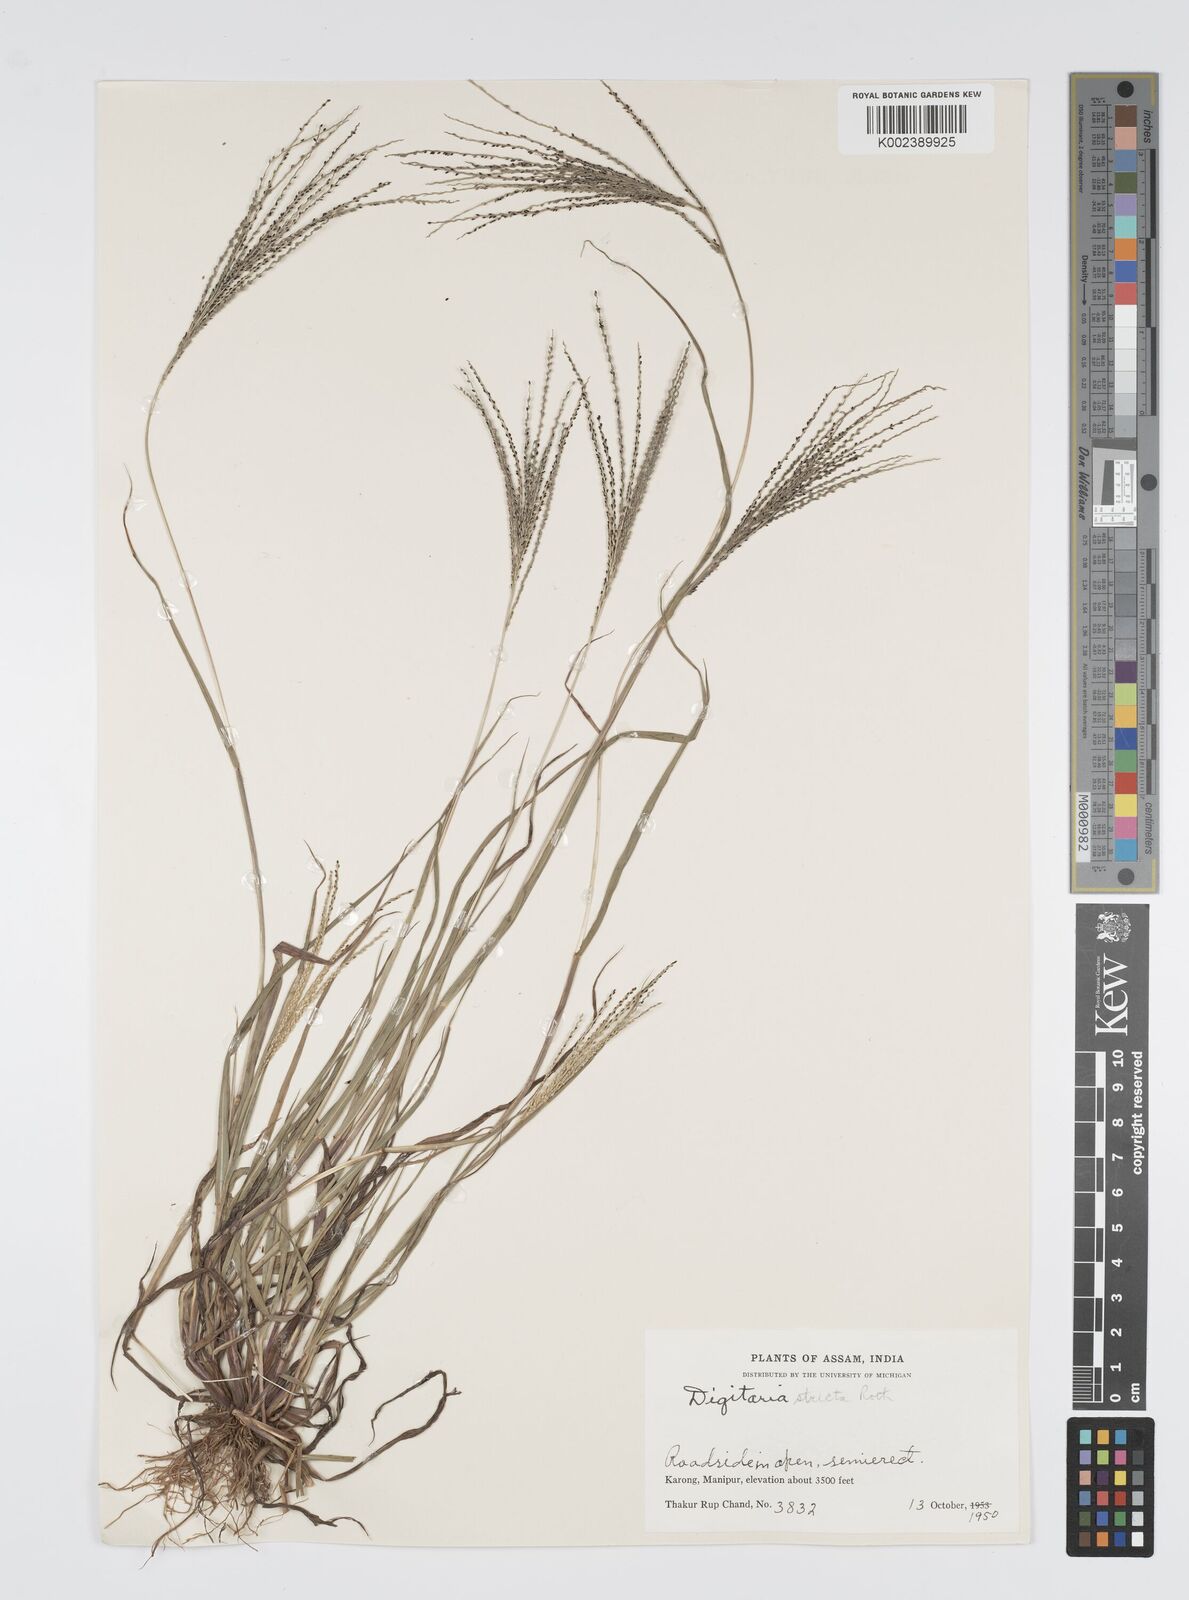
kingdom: Plantae
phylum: Tracheophyta
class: Liliopsida
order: Poales
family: Poaceae
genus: Digitaria
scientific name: Digitaria stricta
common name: Crabgrass
